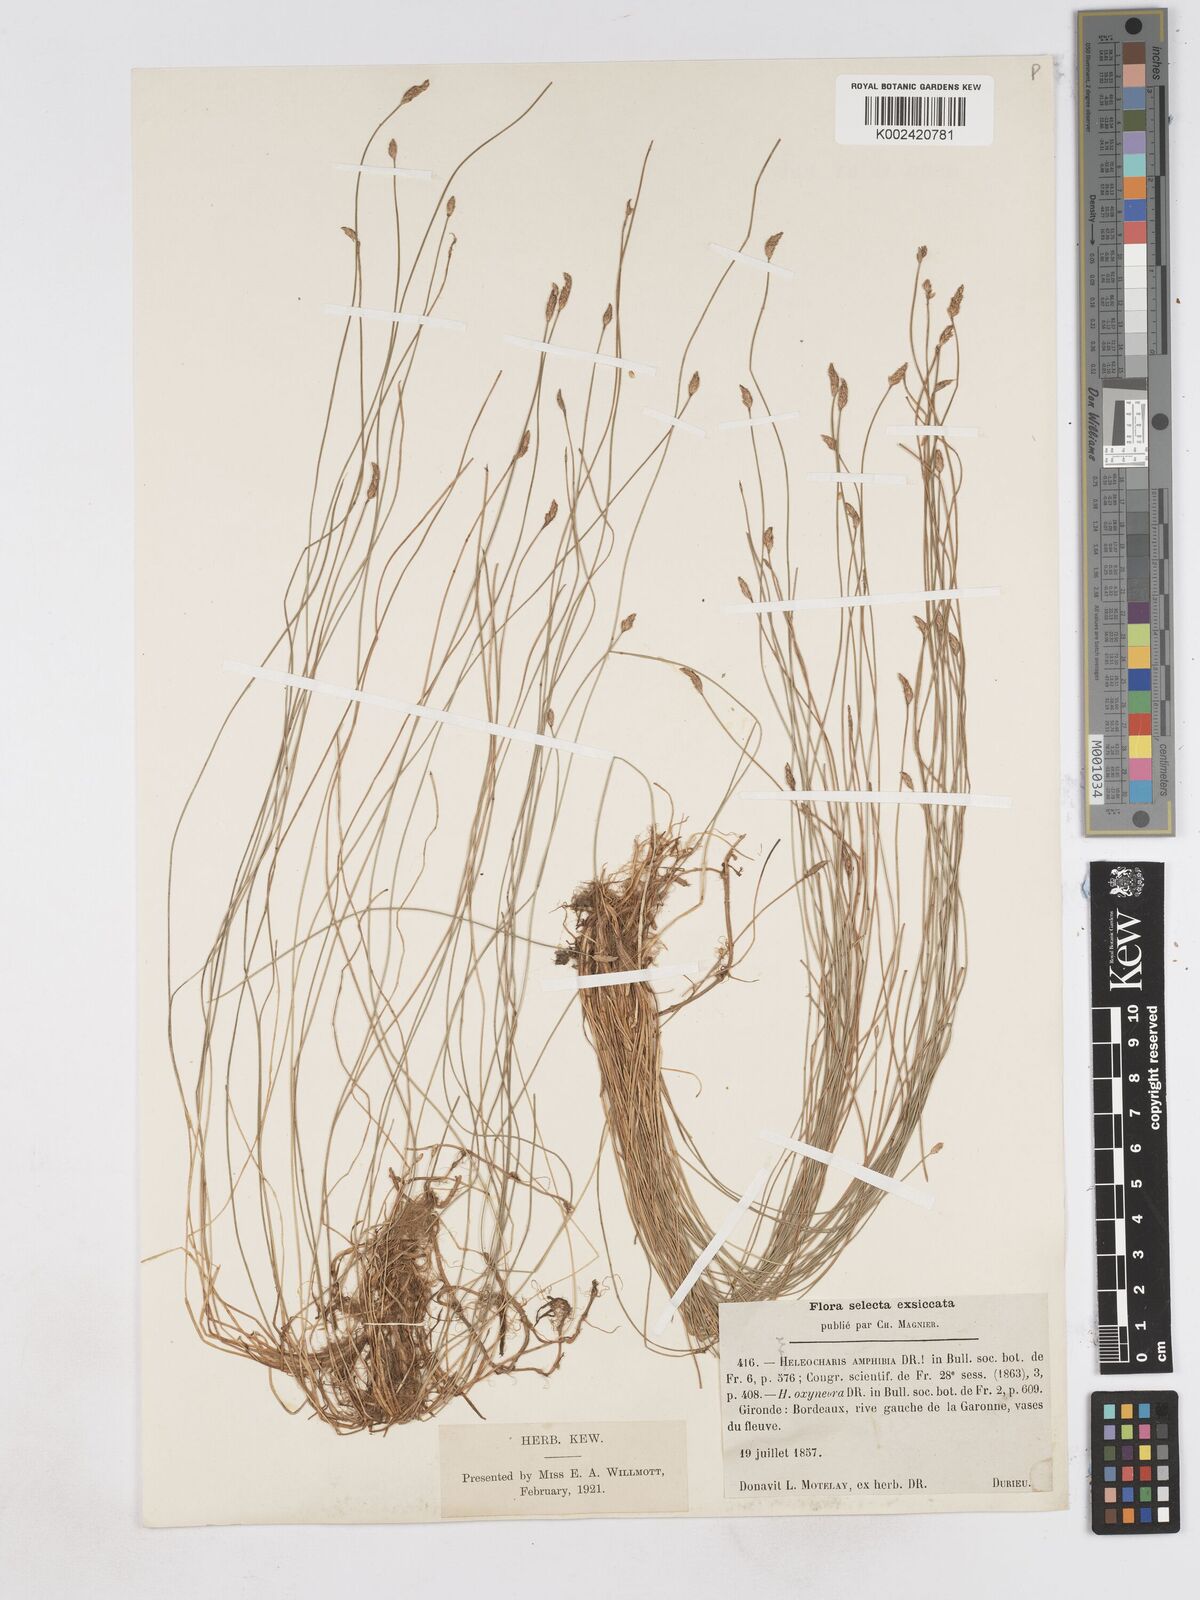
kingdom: Plantae
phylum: Tracheophyta
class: Liliopsida
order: Poales
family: Cyperaceae
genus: Eleocharis
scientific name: Eleocharis bonariensis
